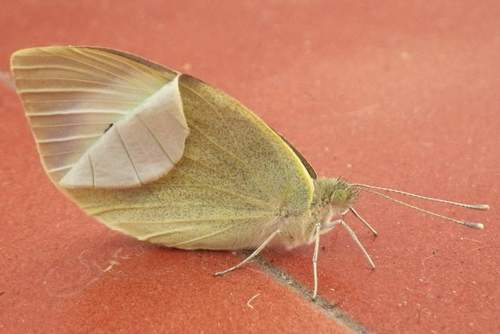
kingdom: Animalia
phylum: Arthropoda
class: Insecta
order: Lepidoptera
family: Pieridae
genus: Pieris
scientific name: Pieris brassicae
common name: Large white
